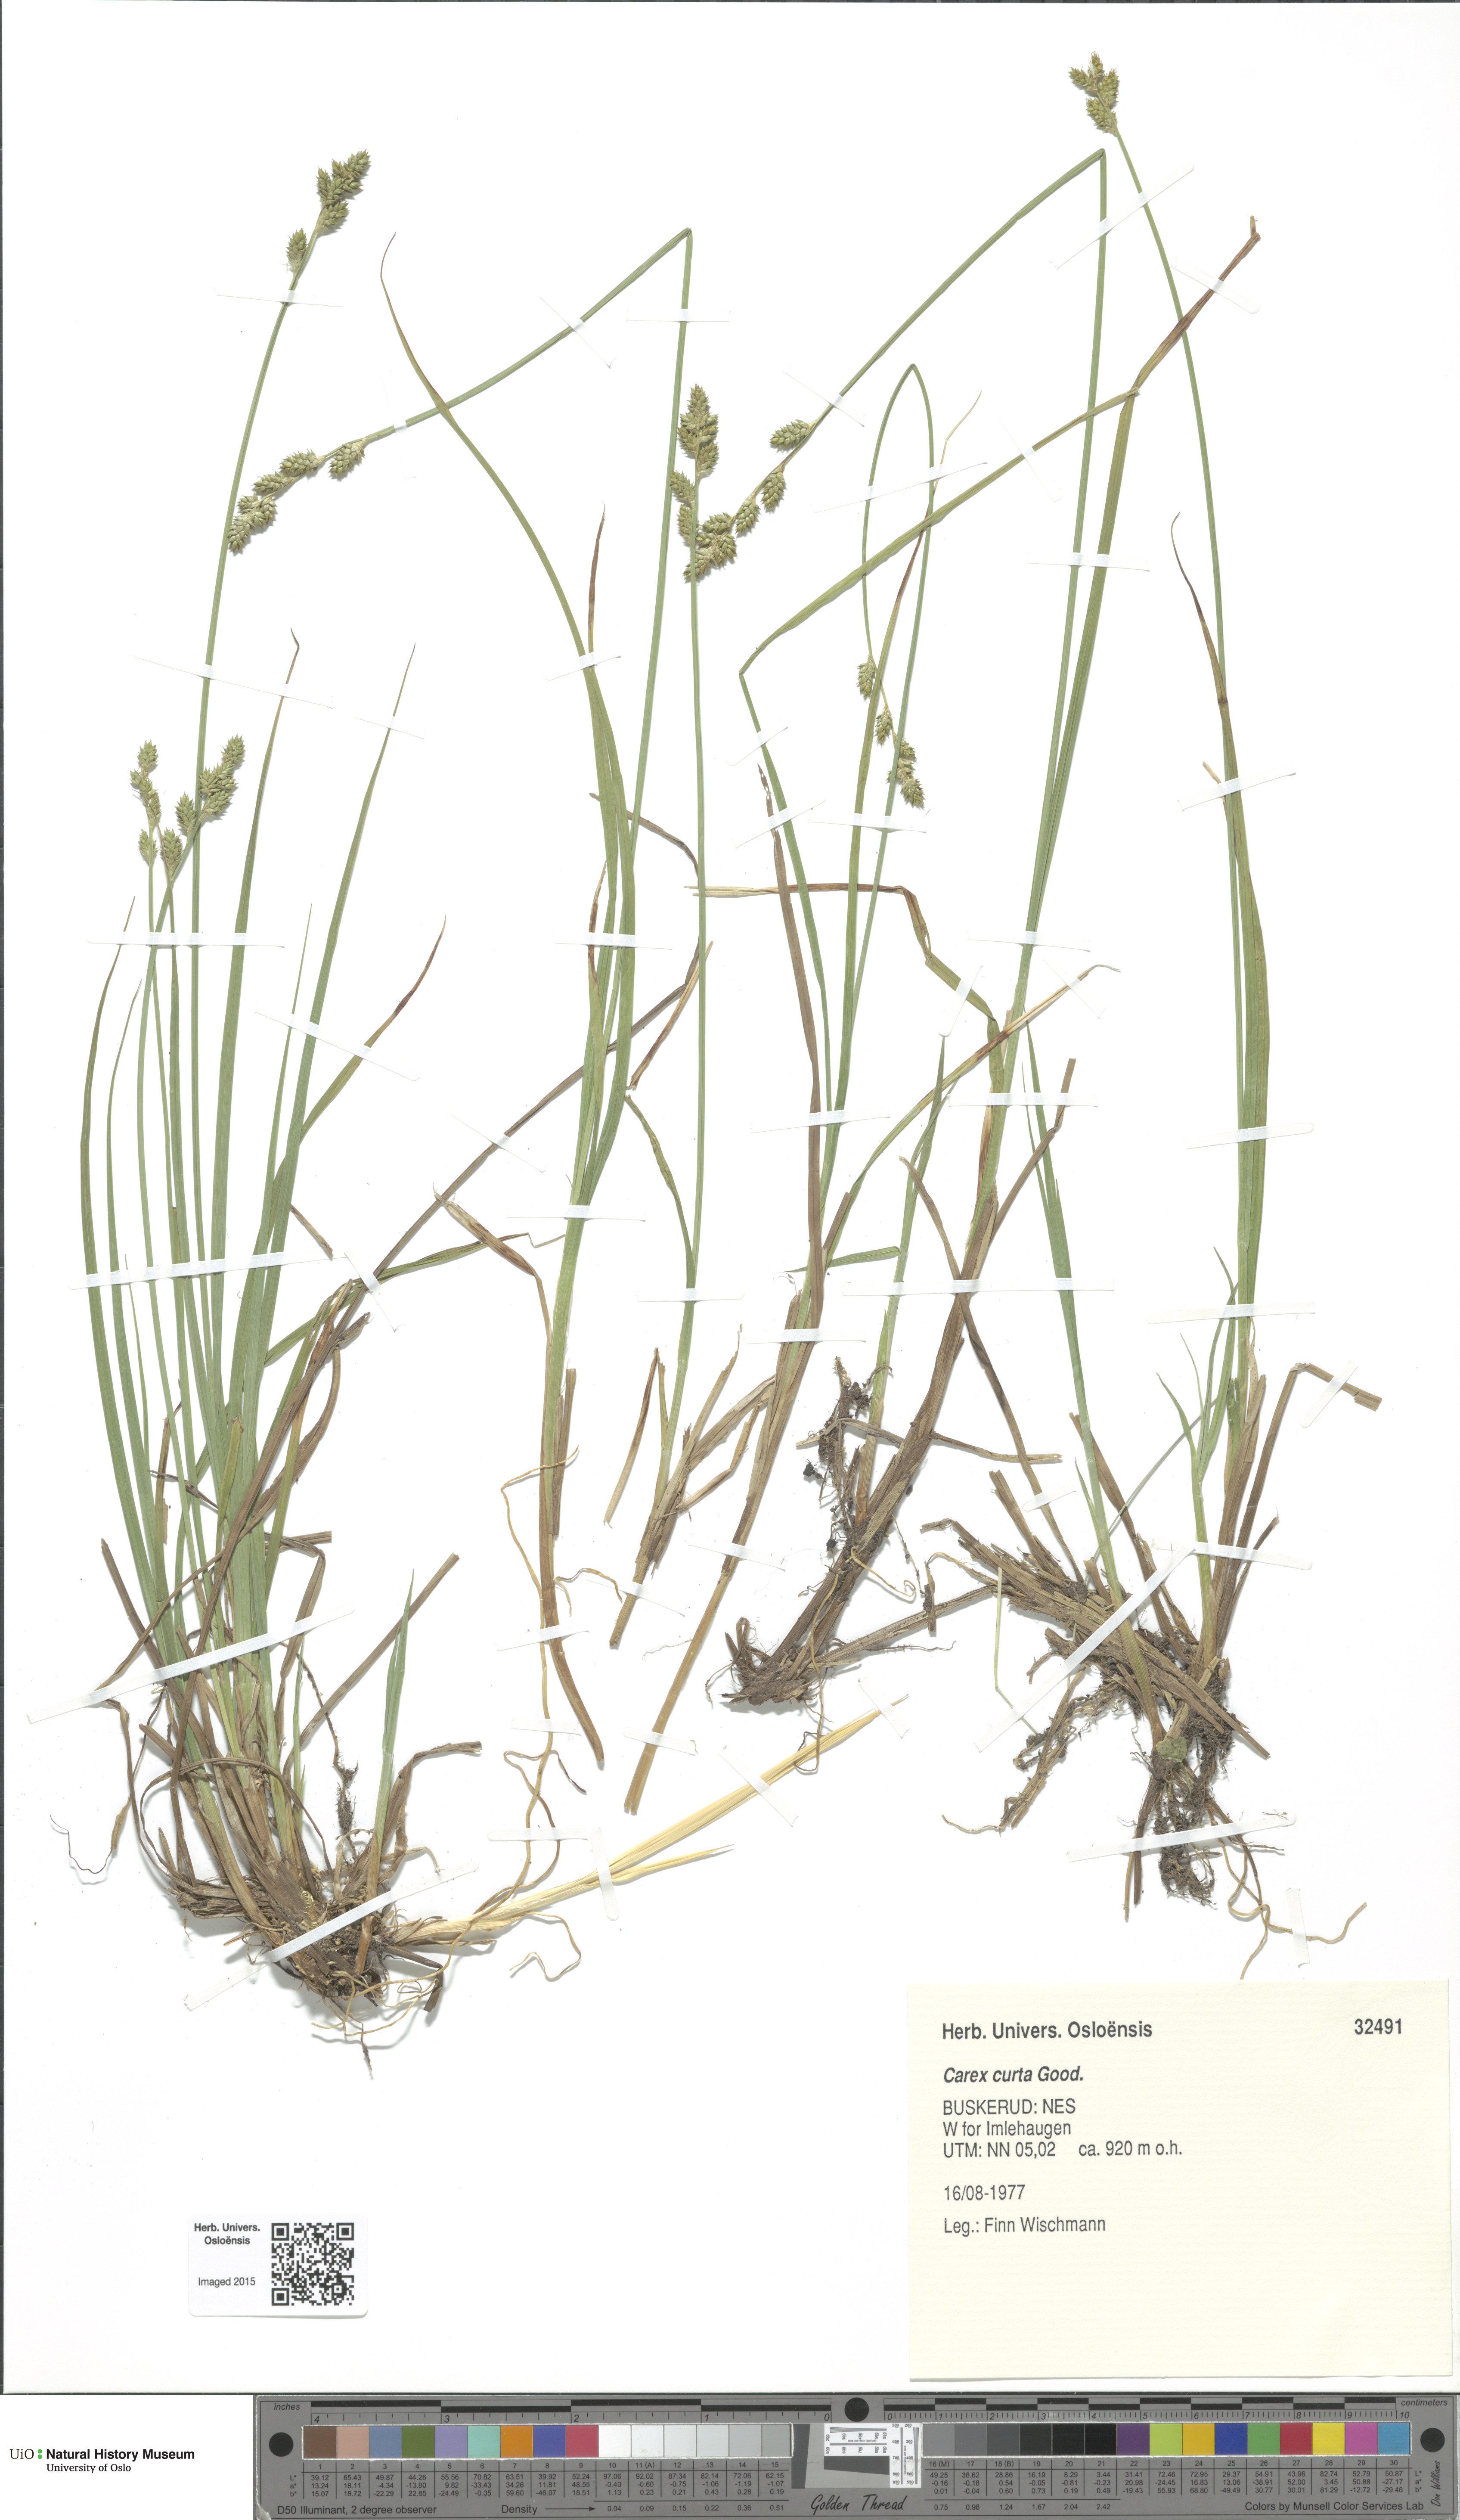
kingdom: Plantae
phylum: Tracheophyta
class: Liliopsida
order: Poales
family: Cyperaceae
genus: Carex
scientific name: Carex canescens
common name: White sedge
